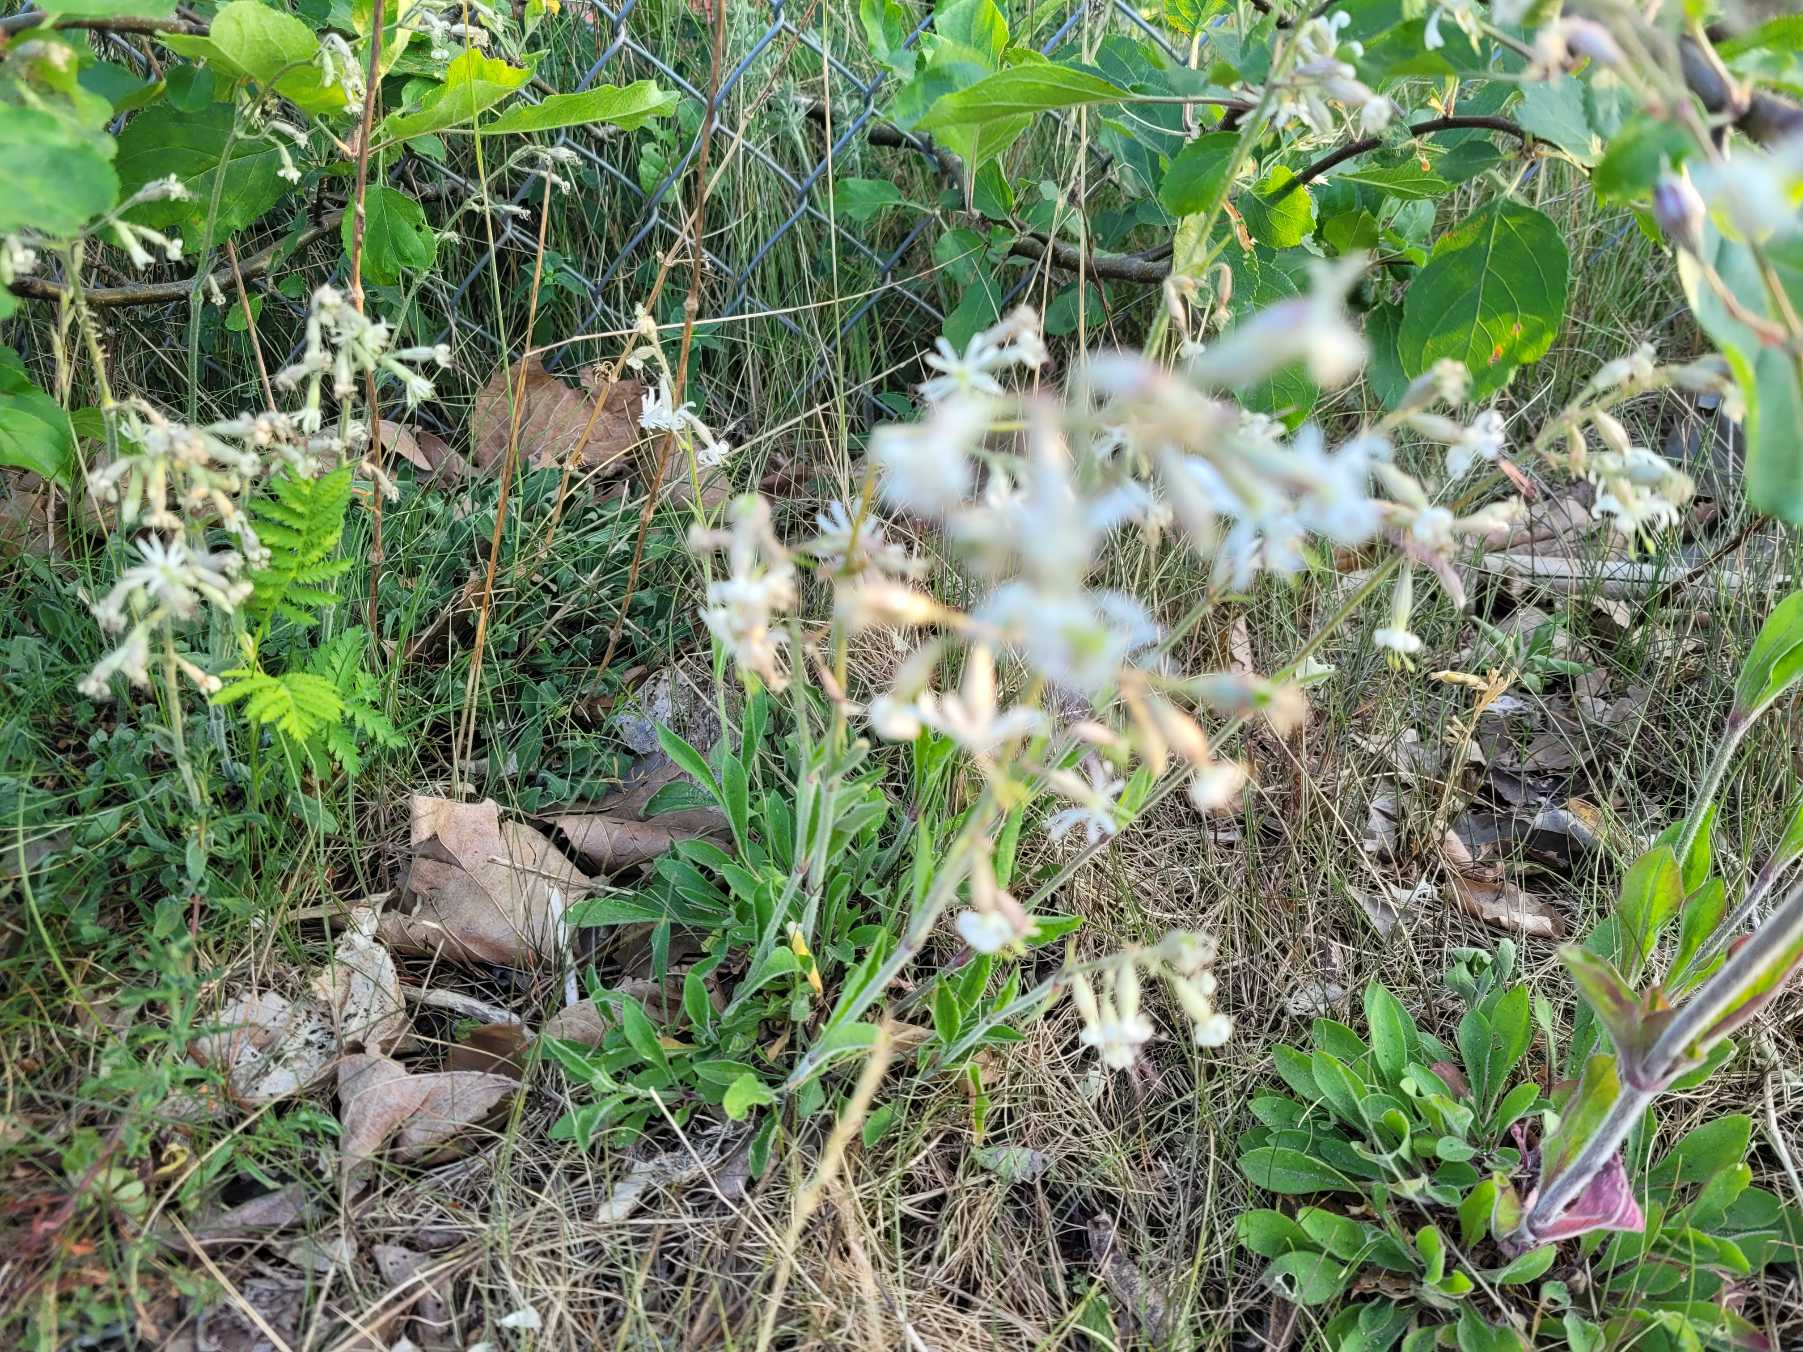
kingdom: Plantae
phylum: Tracheophyta
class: Magnoliopsida
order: Caryophyllales
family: Caryophyllaceae
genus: Silene
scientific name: Silene nutans
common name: Nikkende limurt
